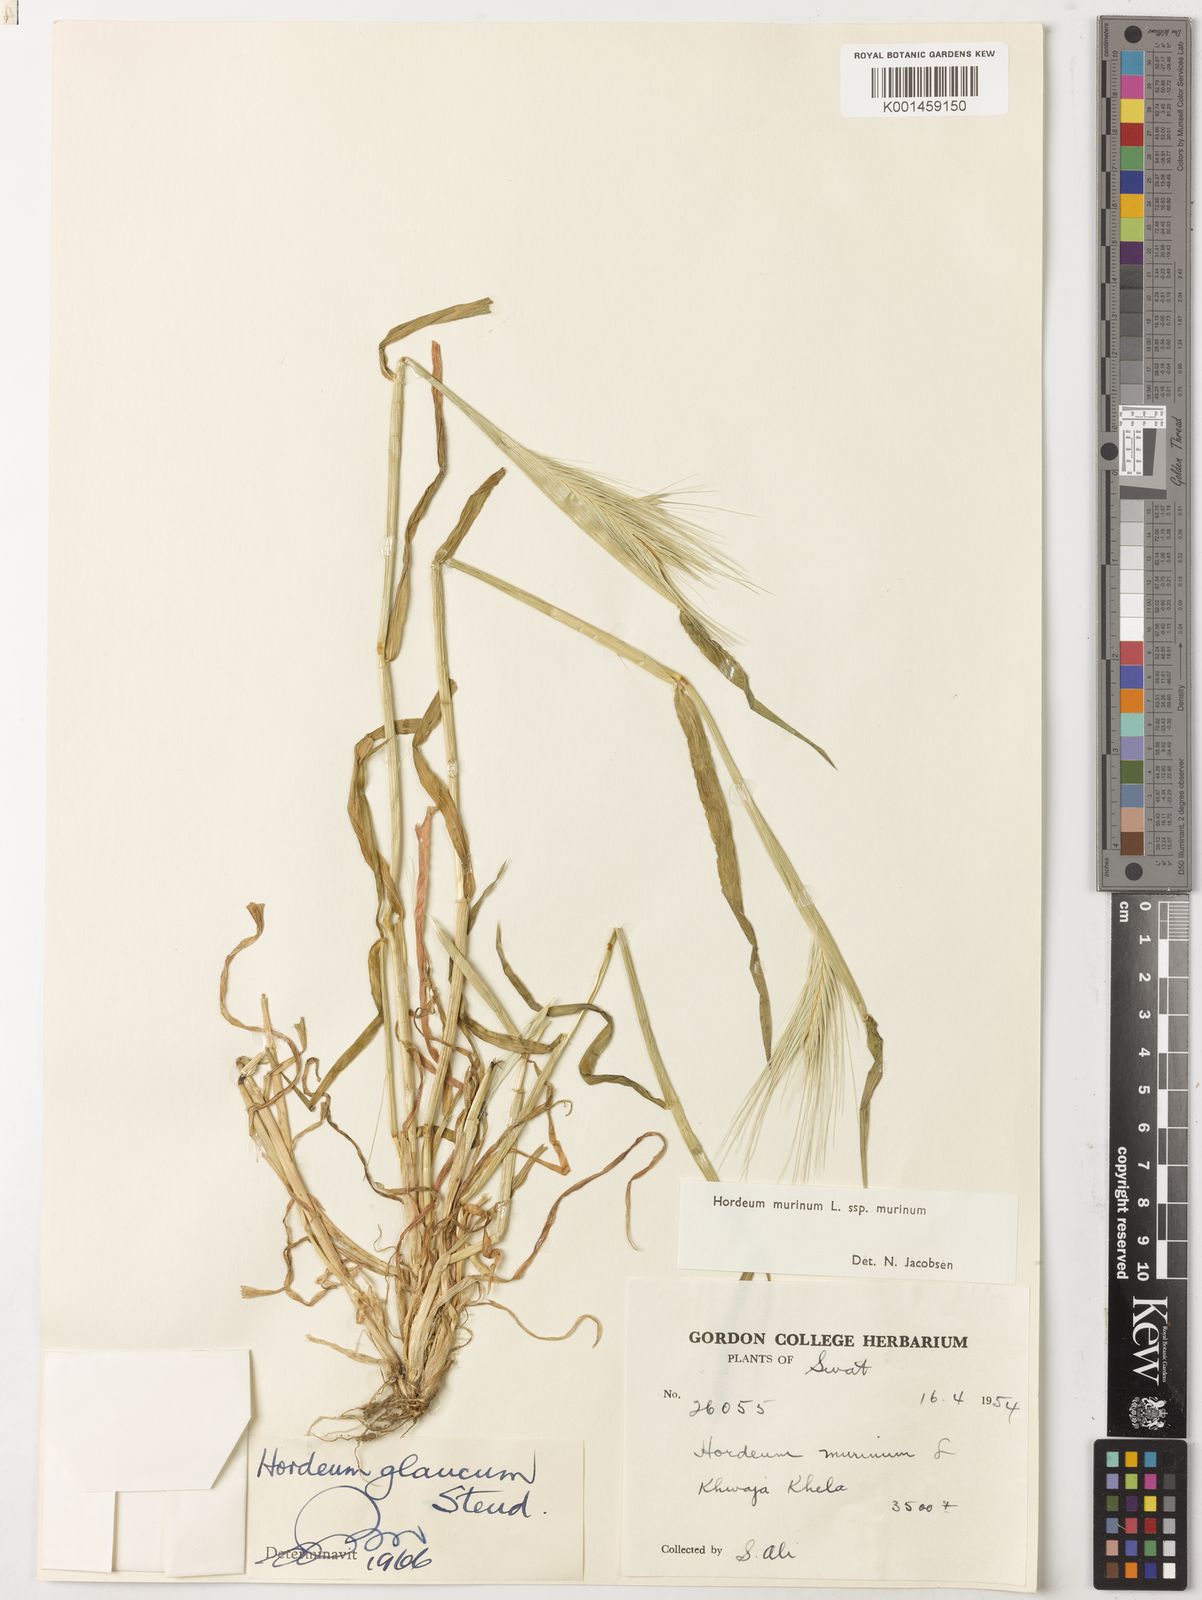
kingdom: Plantae
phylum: Tracheophyta
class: Liliopsida
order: Poales
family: Poaceae
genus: Hordeum
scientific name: Hordeum murinum
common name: Wall barley
